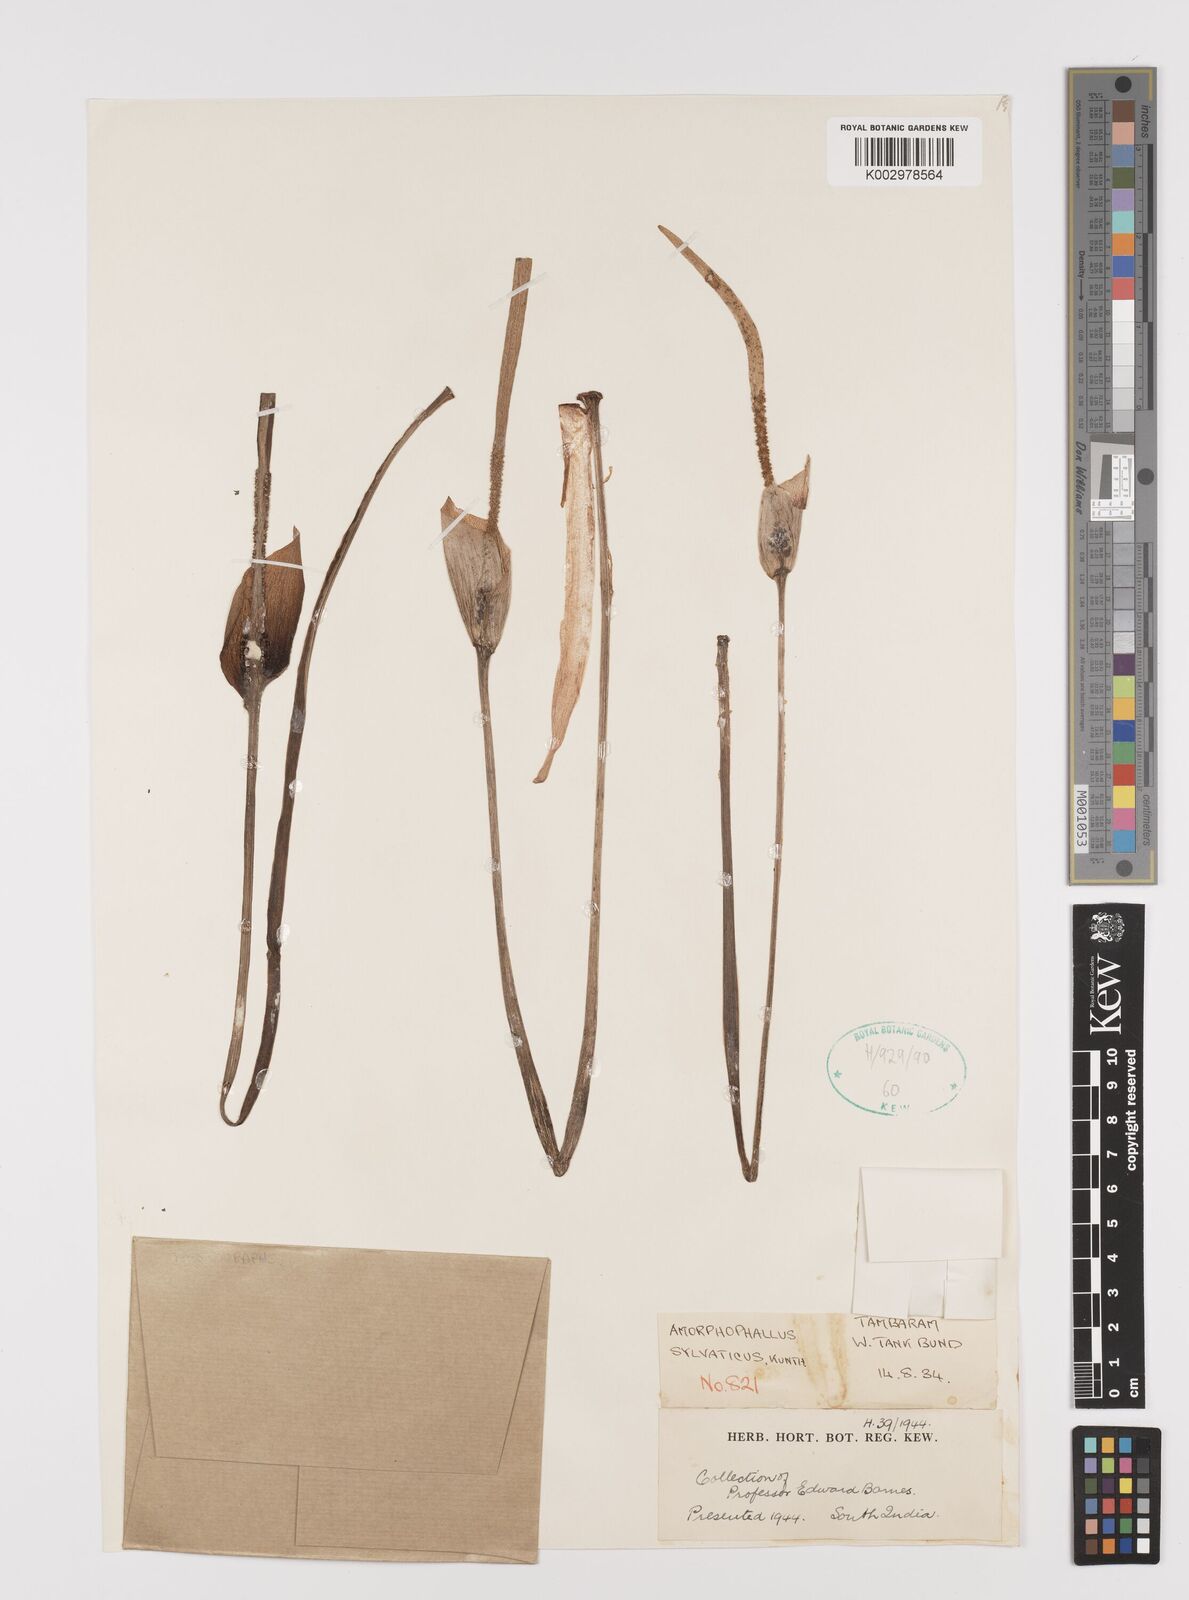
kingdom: Plantae
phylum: Tracheophyta
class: Liliopsida
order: Alismatales
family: Araceae
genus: Amorphophallus
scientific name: Amorphophallus sylvaticus
